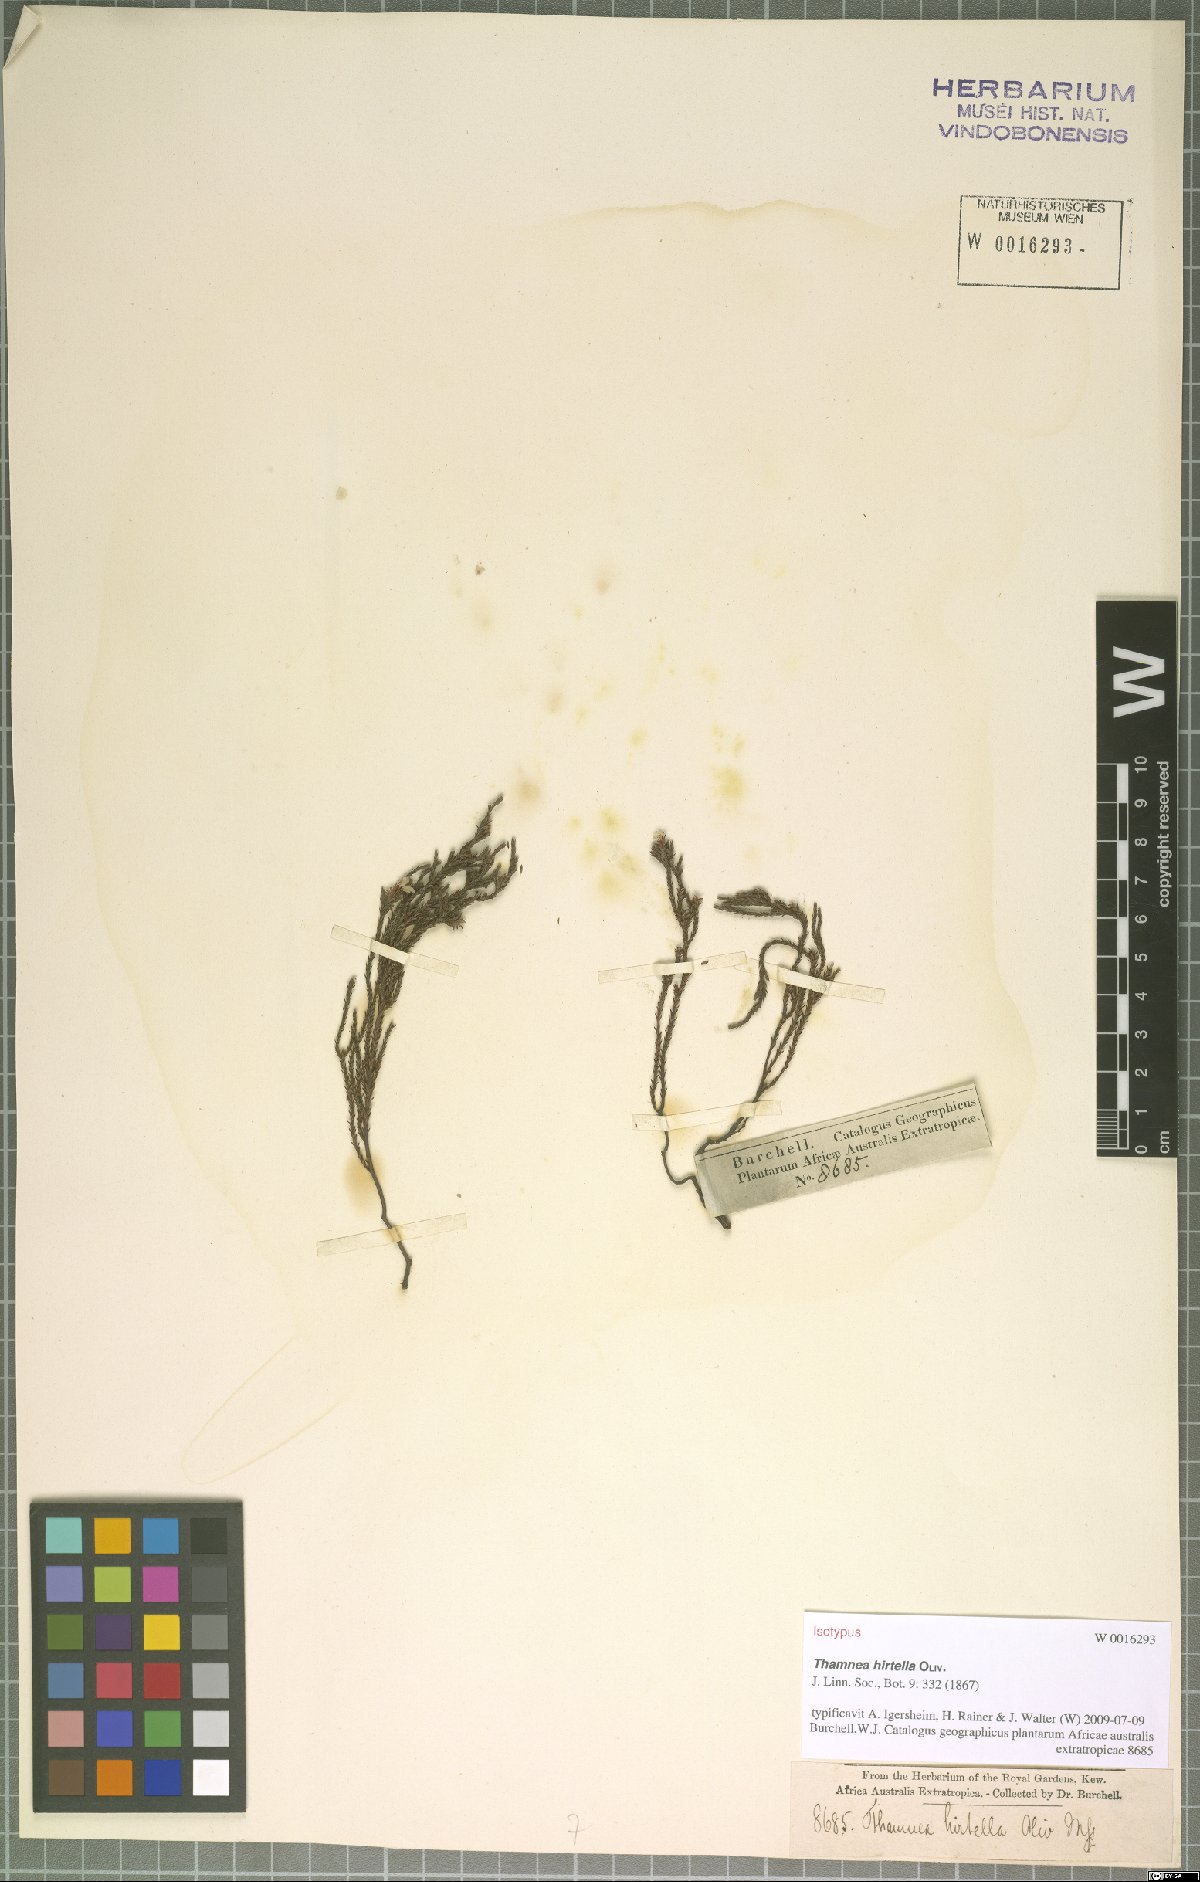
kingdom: Plantae
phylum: Tracheophyta
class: Magnoliopsida
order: Bruniales
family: Bruniaceae
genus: Thamnea
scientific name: Thamnea hirtella
